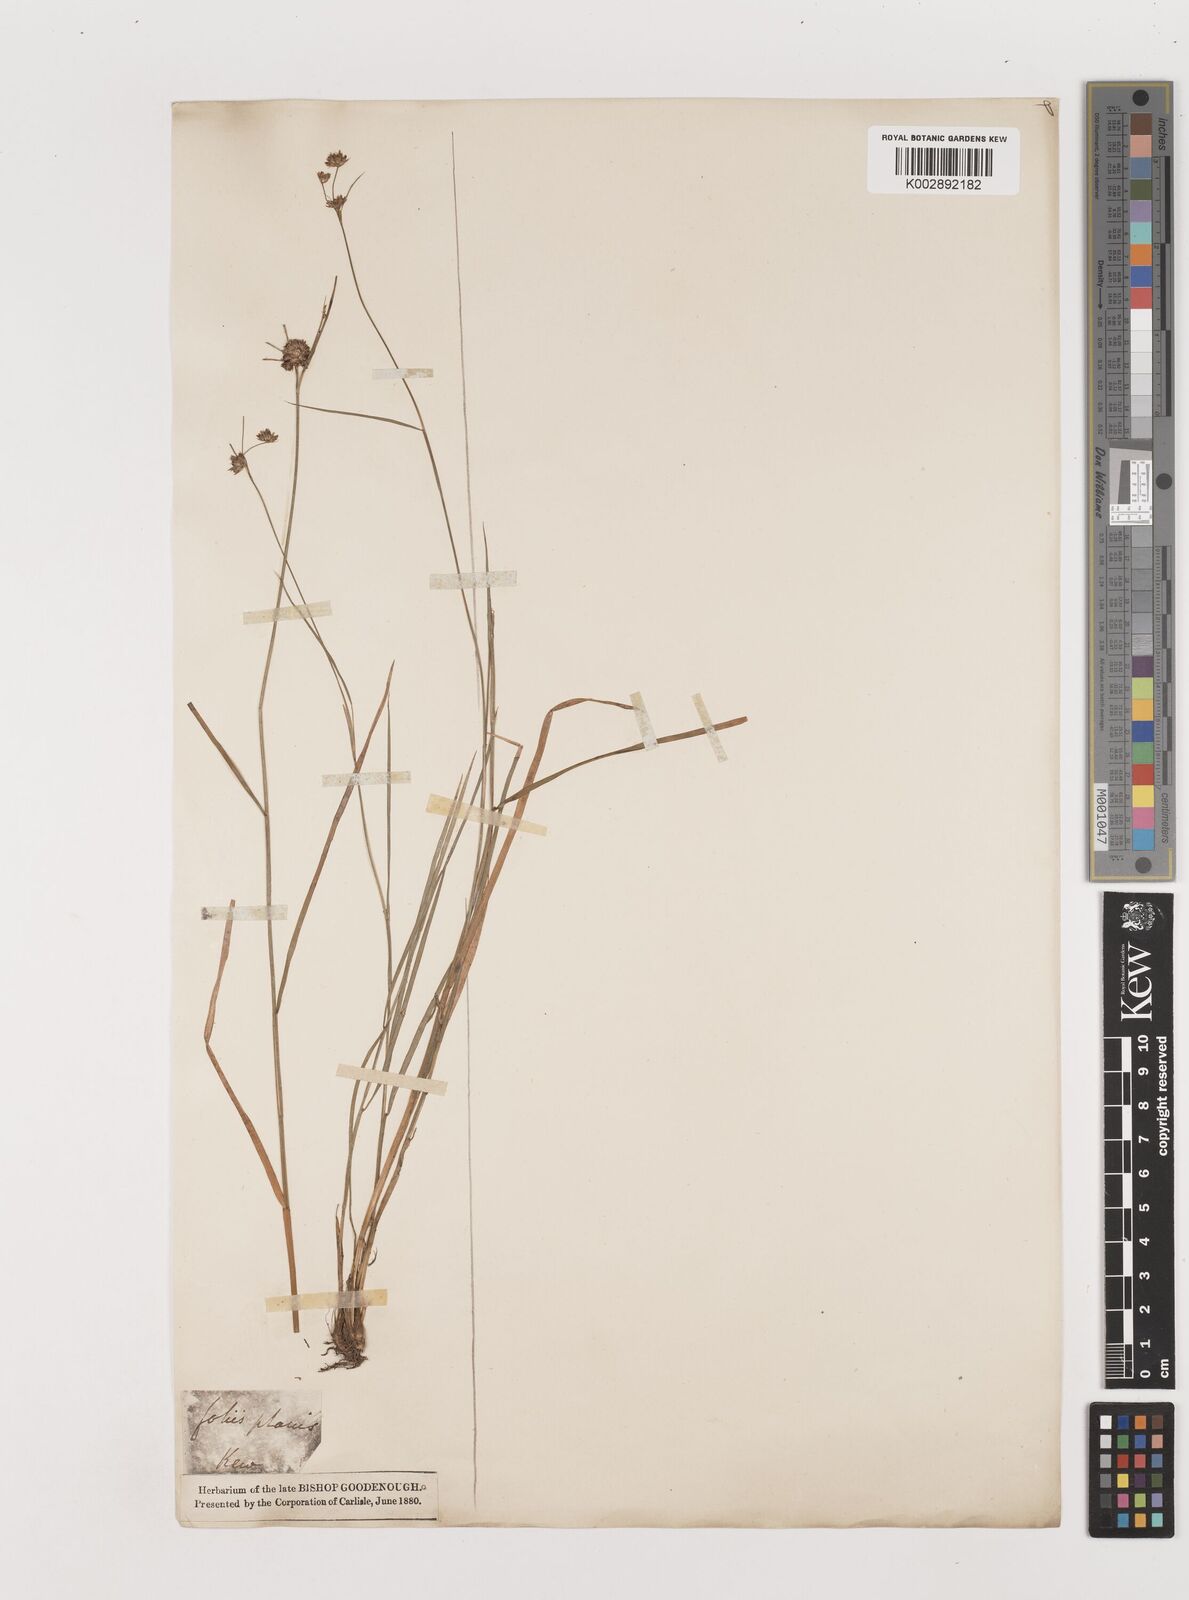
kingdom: Plantae
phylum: Tracheophyta
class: Liliopsida
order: Poales
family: Juncaceae
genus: Juncus
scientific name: Juncus articulatus
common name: Jointed rush
